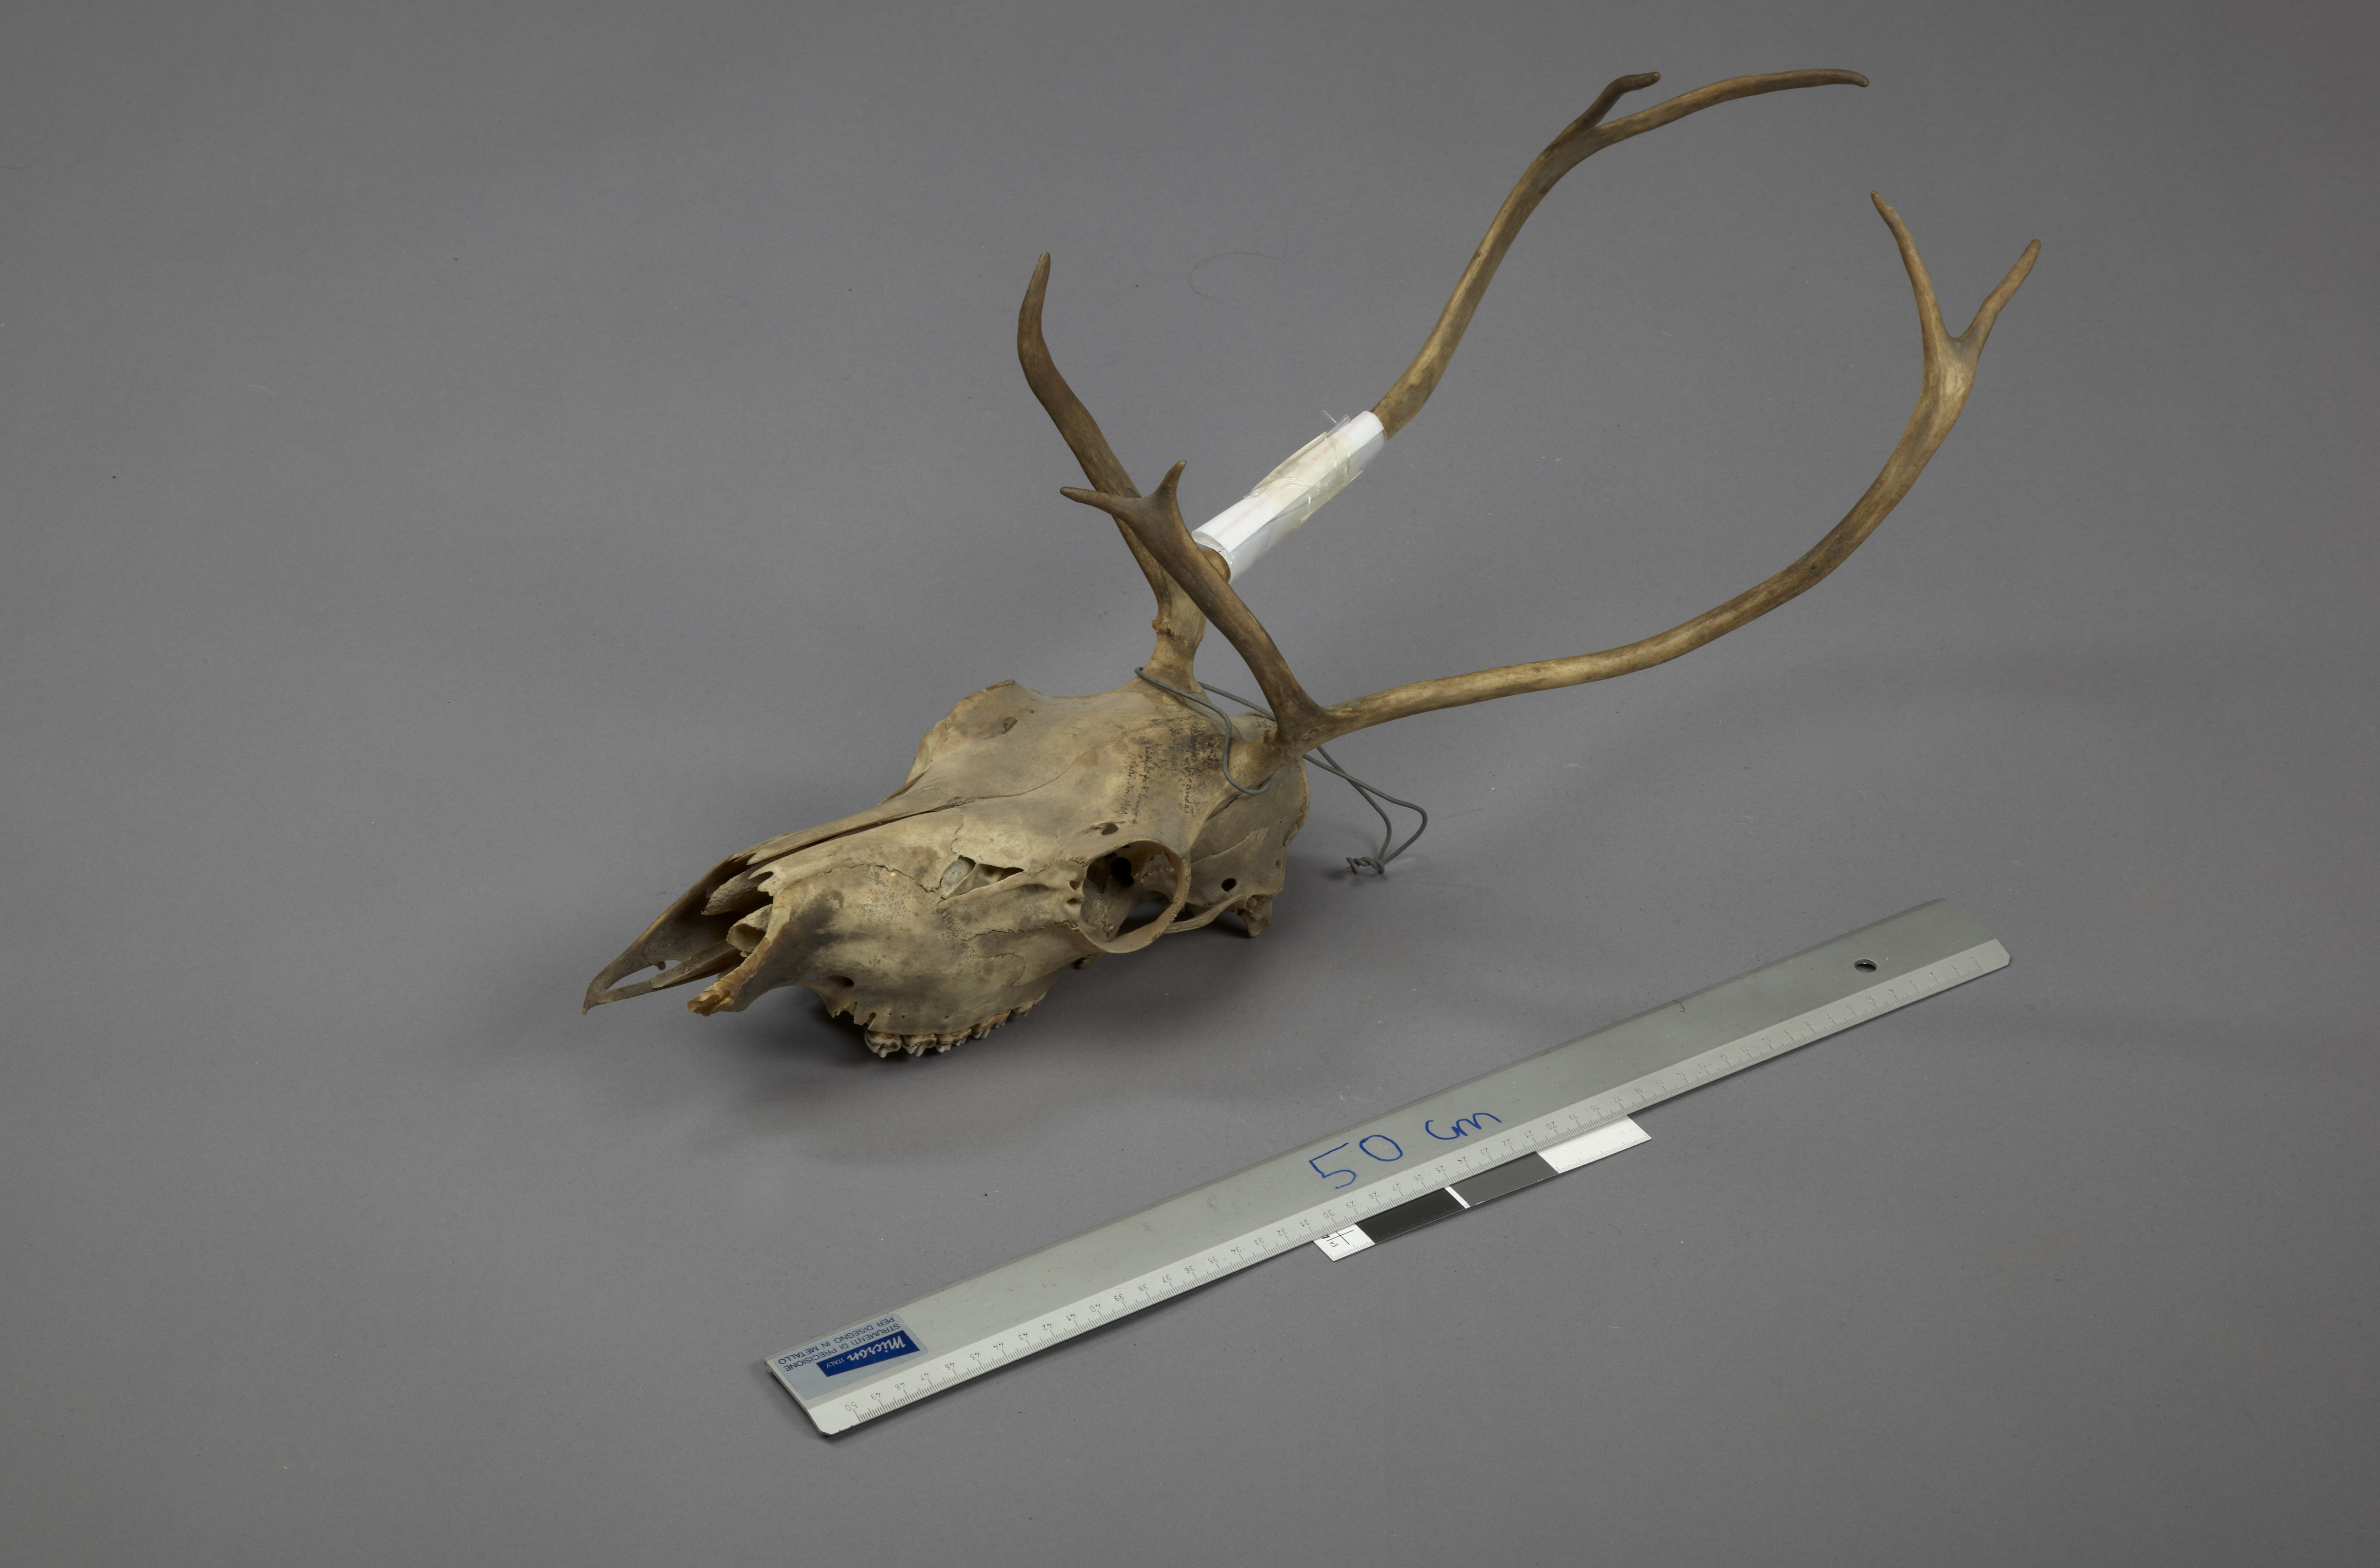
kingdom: Animalia
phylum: Chordata
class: Mammalia
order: Artiodactyla
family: Cervidae
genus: Rangifer
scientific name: Rangifer tarandus
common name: Reindeer
